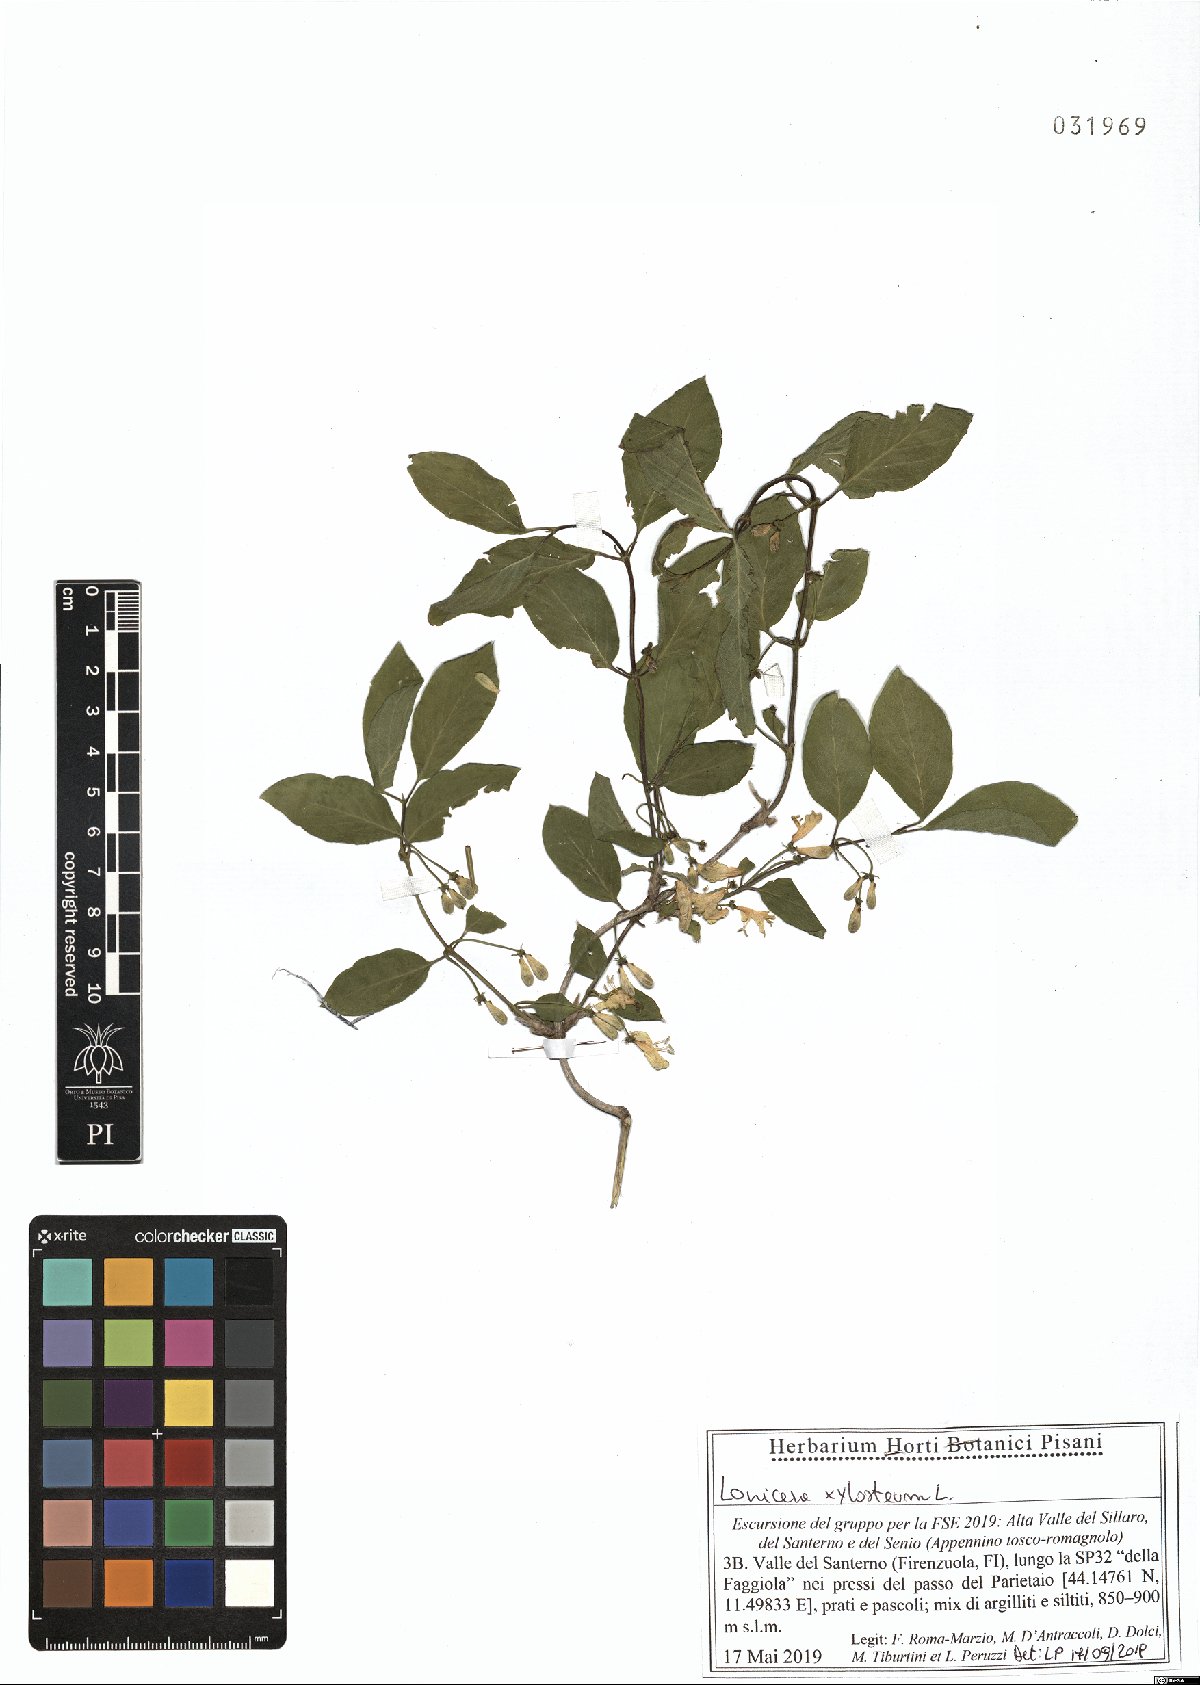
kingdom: Plantae
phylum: Tracheophyta
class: Magnoliopsida
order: Dipsacales
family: Caprifoliaceae
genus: Lonicera
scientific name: Lonicera xylosteum
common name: Fly honeysuckle
